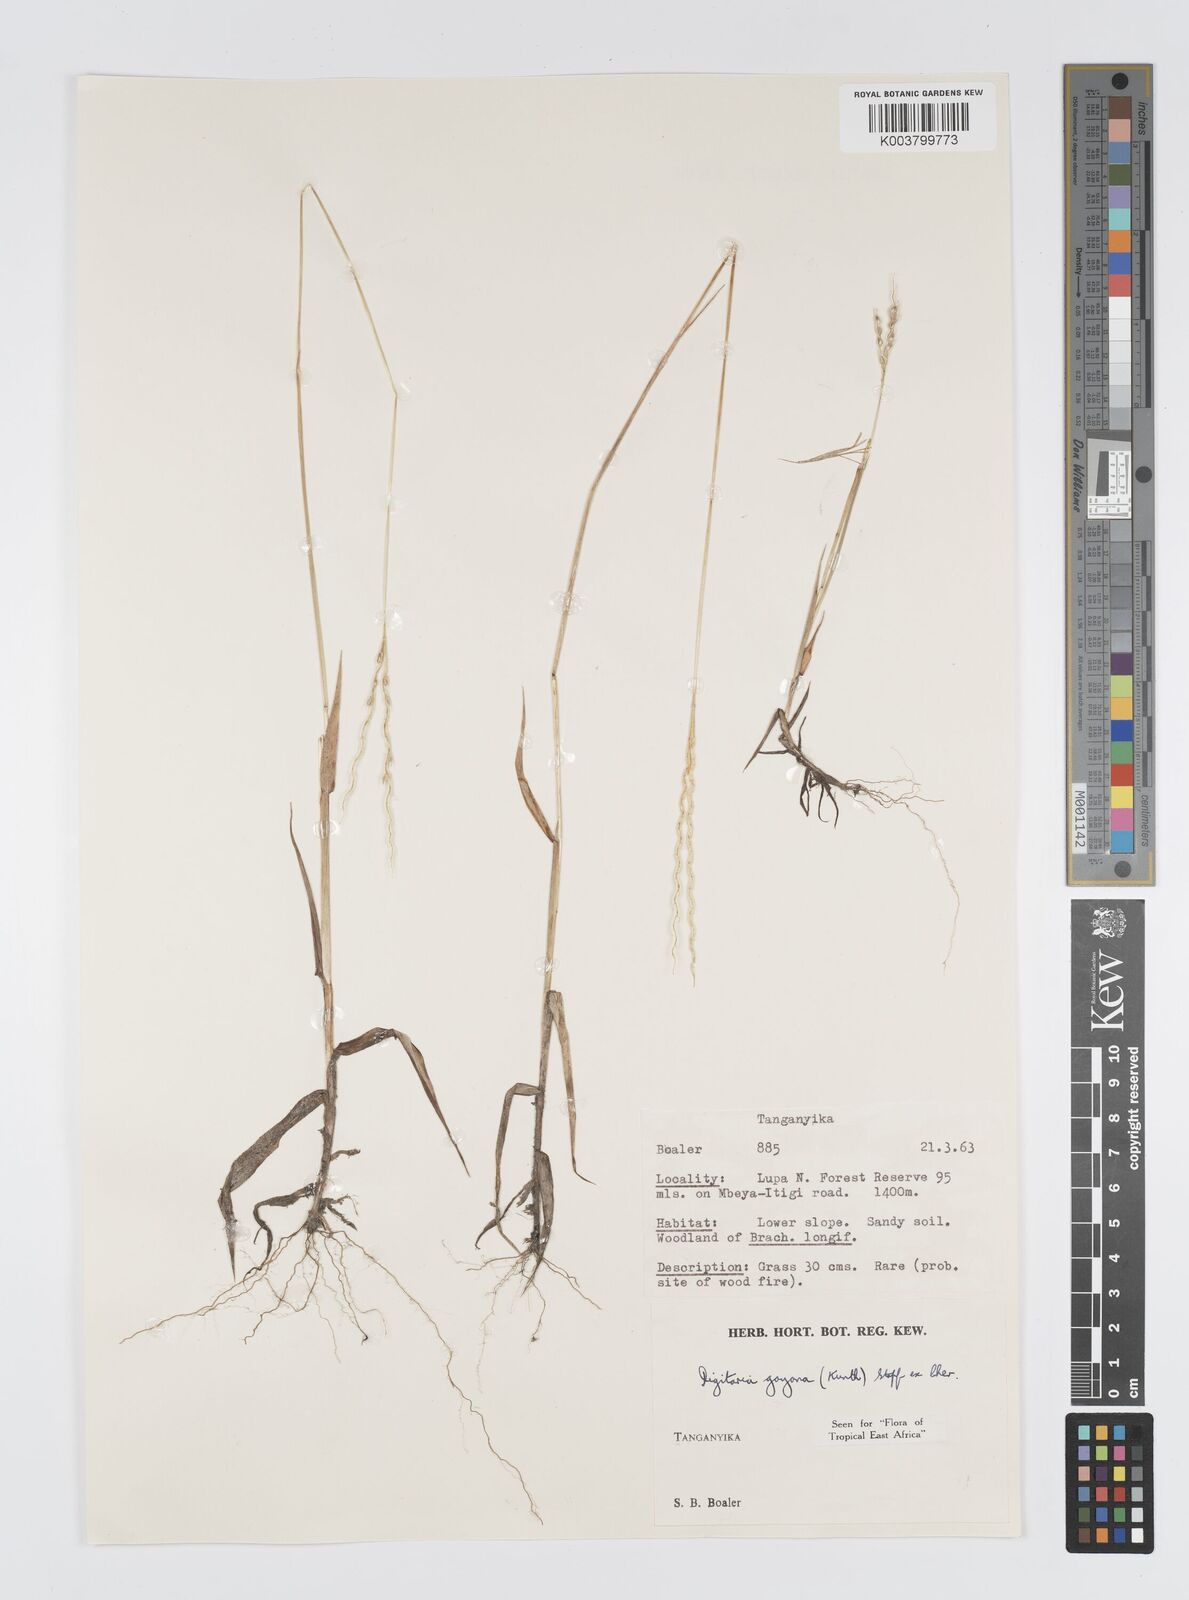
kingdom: Plantae
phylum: Tracheophyta
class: Liliopsida
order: Poales
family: Poaceae
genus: Digitaria
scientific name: Digitaria gayana
